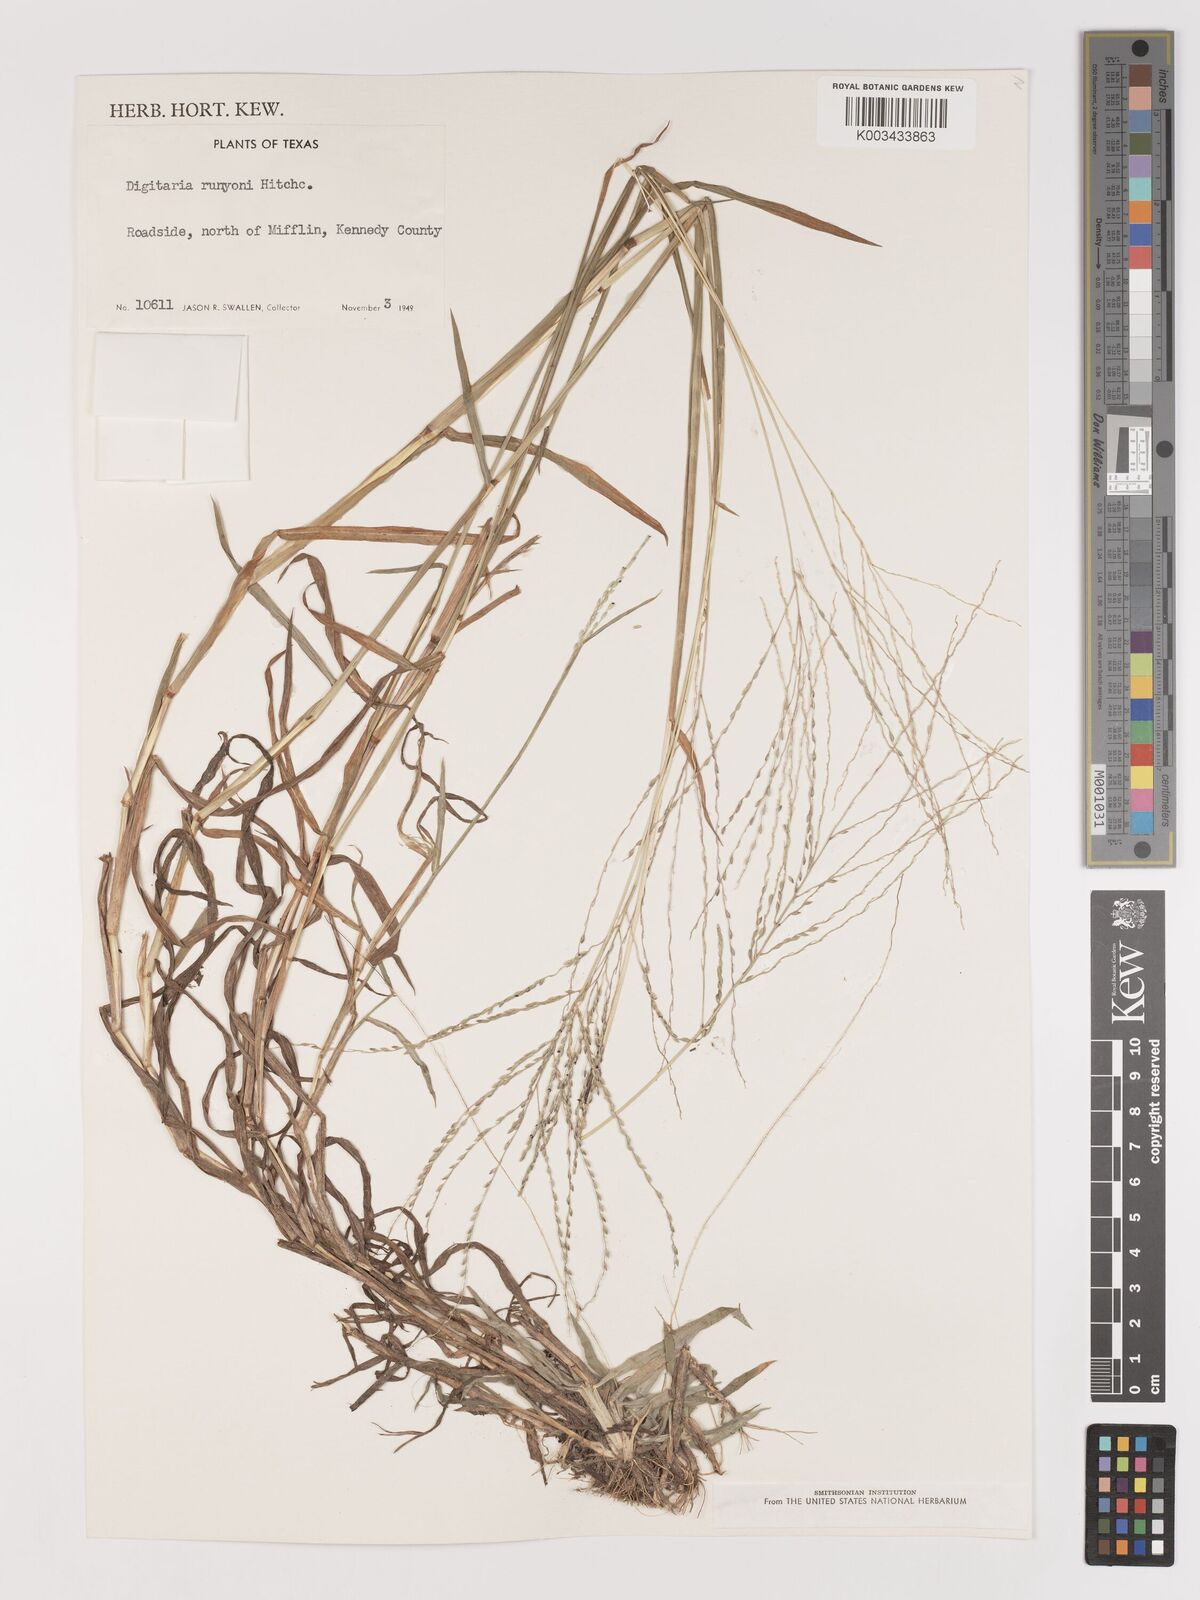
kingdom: Plantae
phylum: Tracheophyta
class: Liliopsida
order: Poales
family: Poaceae
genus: Digitaria
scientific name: Digitaria texana
